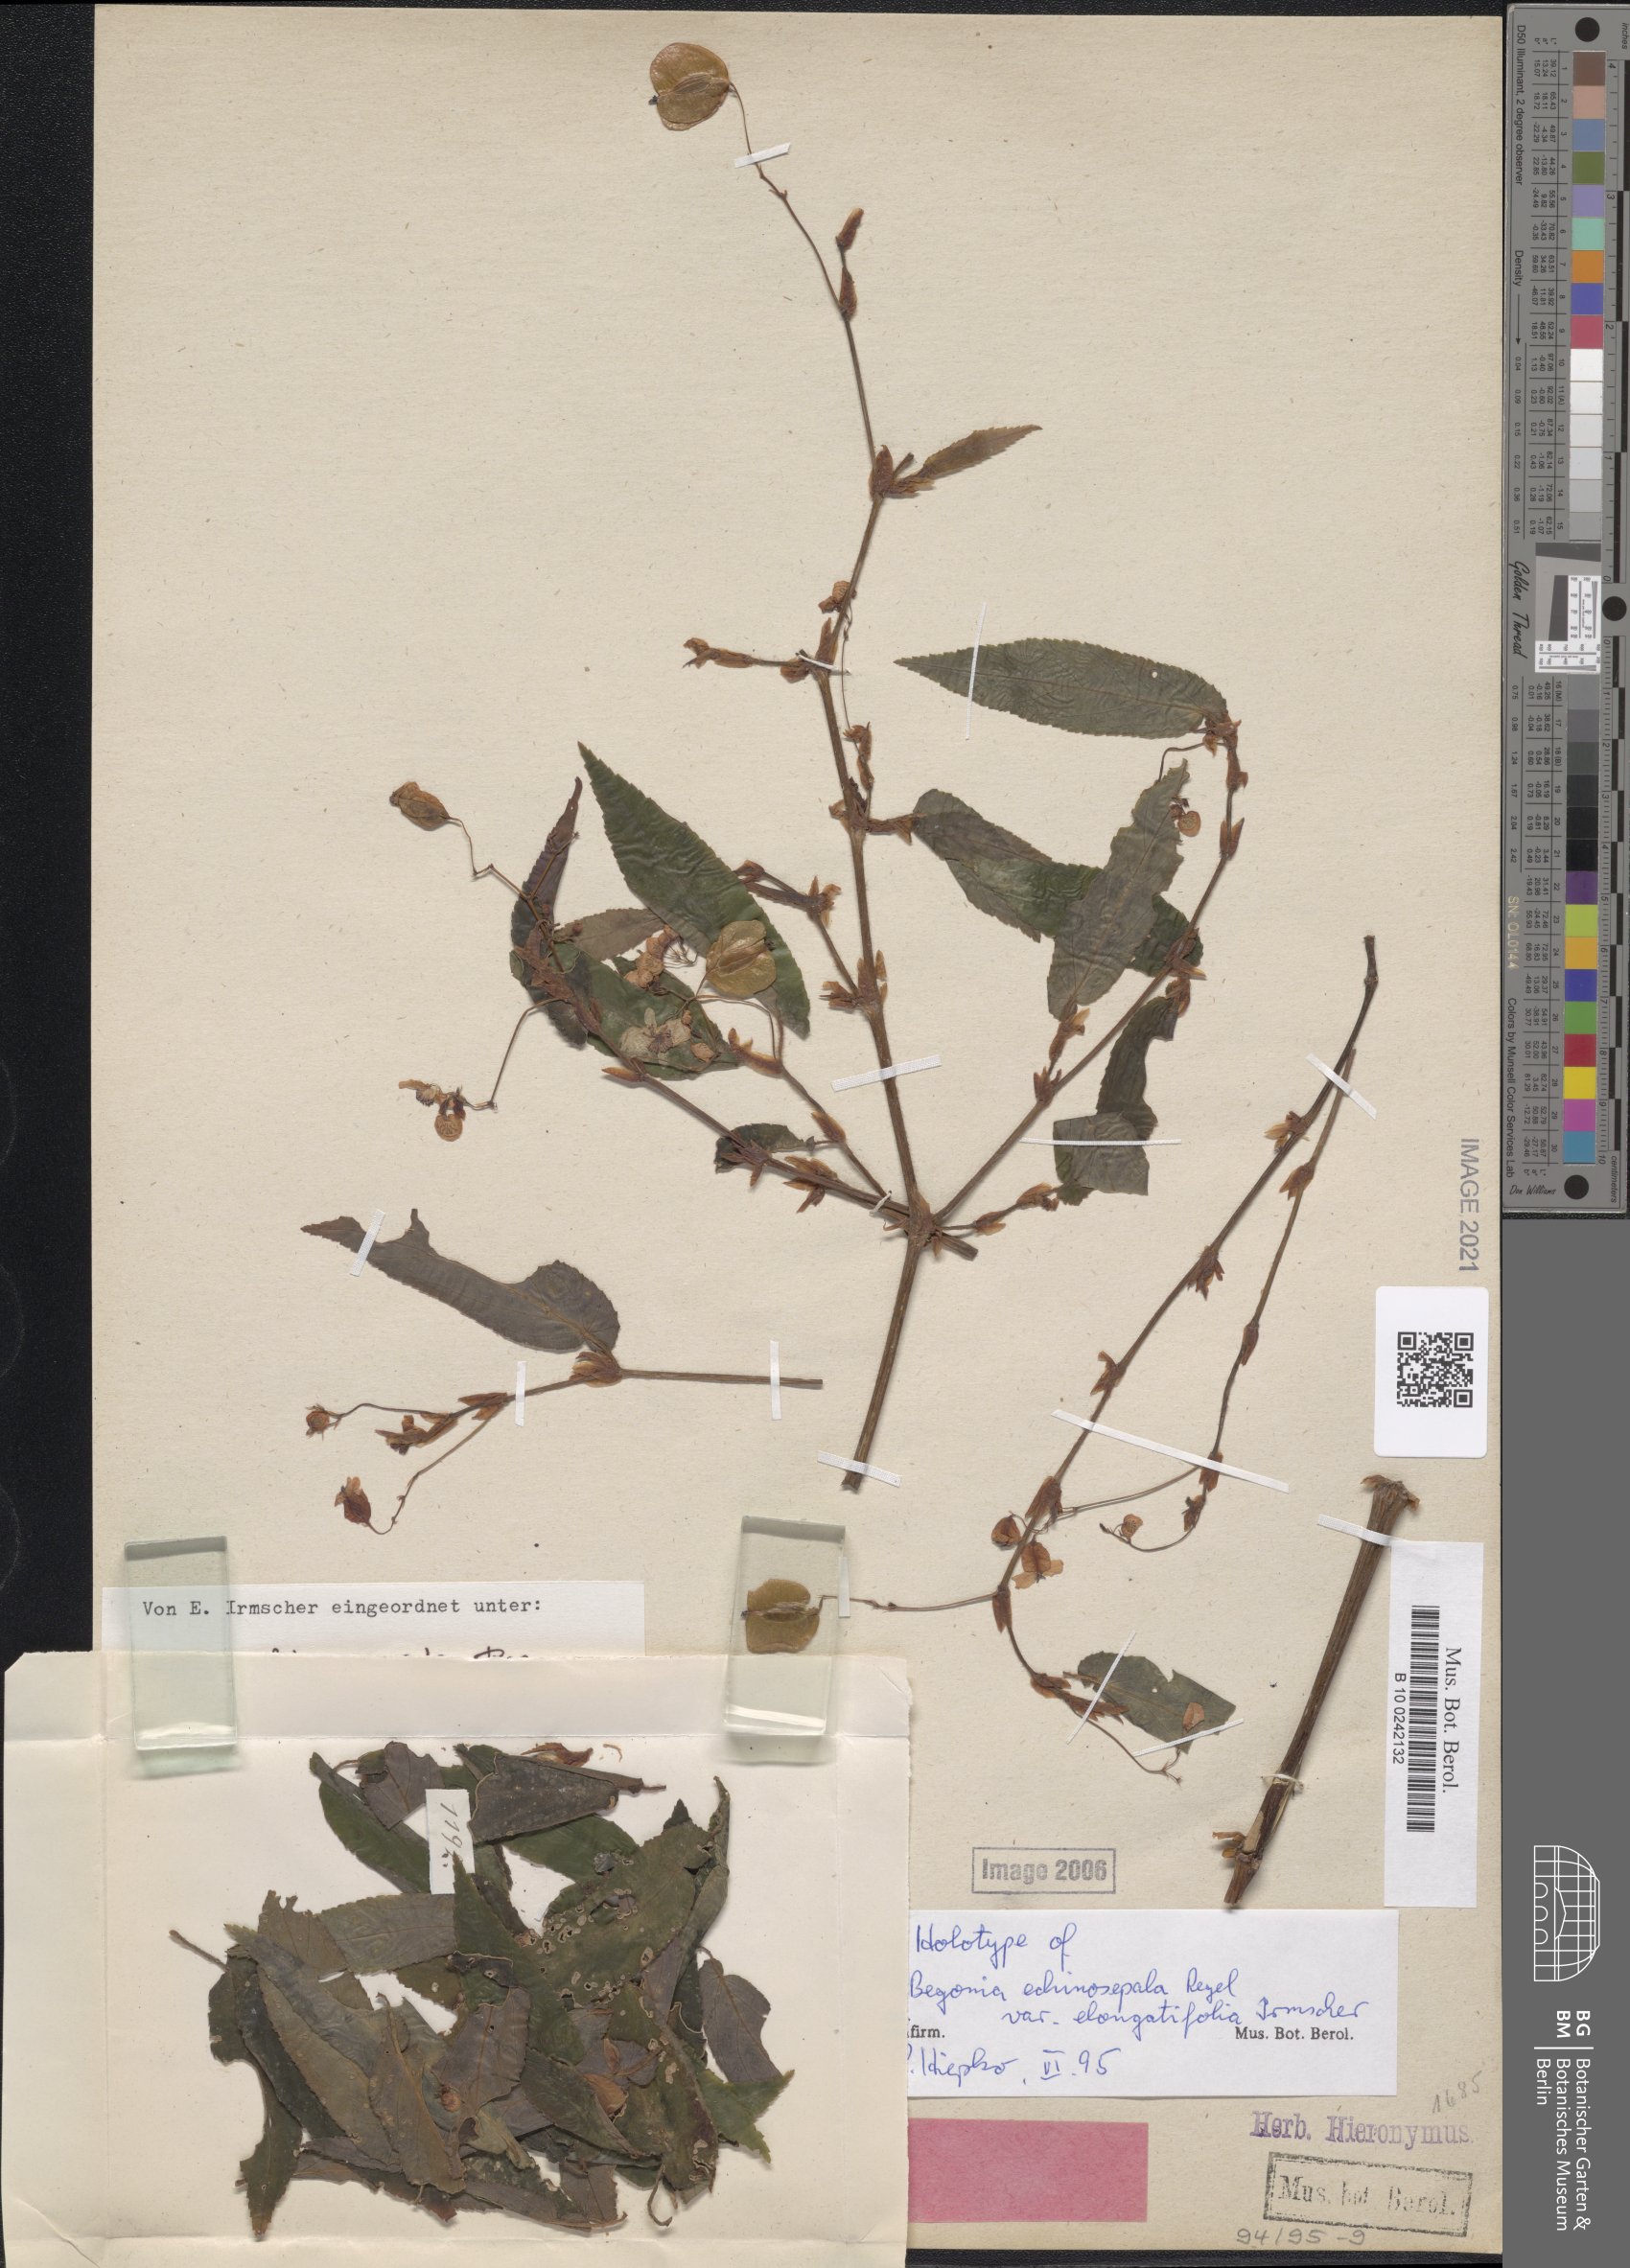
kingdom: Plantae
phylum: Tracheophyta
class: Magnoliopsida
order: Cucurbitales
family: Begoniaceae
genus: Begonia
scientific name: Begonia echinosepala
